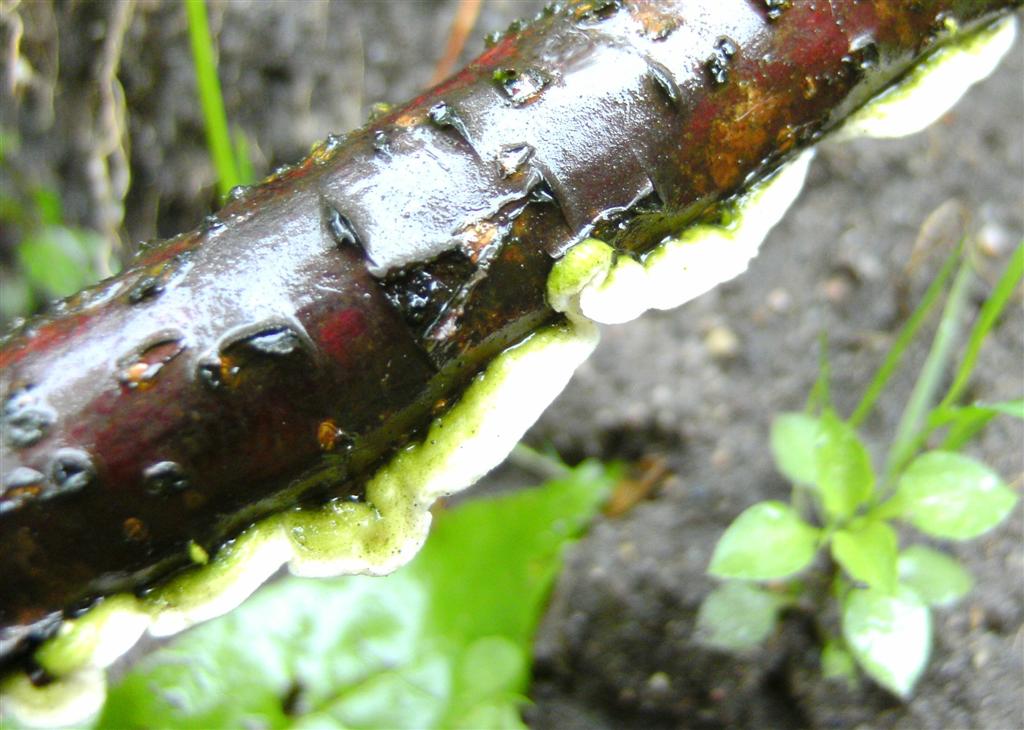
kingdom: Fungi
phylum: Basidiomycota
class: Agaricomycetes
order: Polyporales
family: Irpicaceae
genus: Byssomerulius
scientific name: Byssomerulius corium
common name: læder-åresvamp
